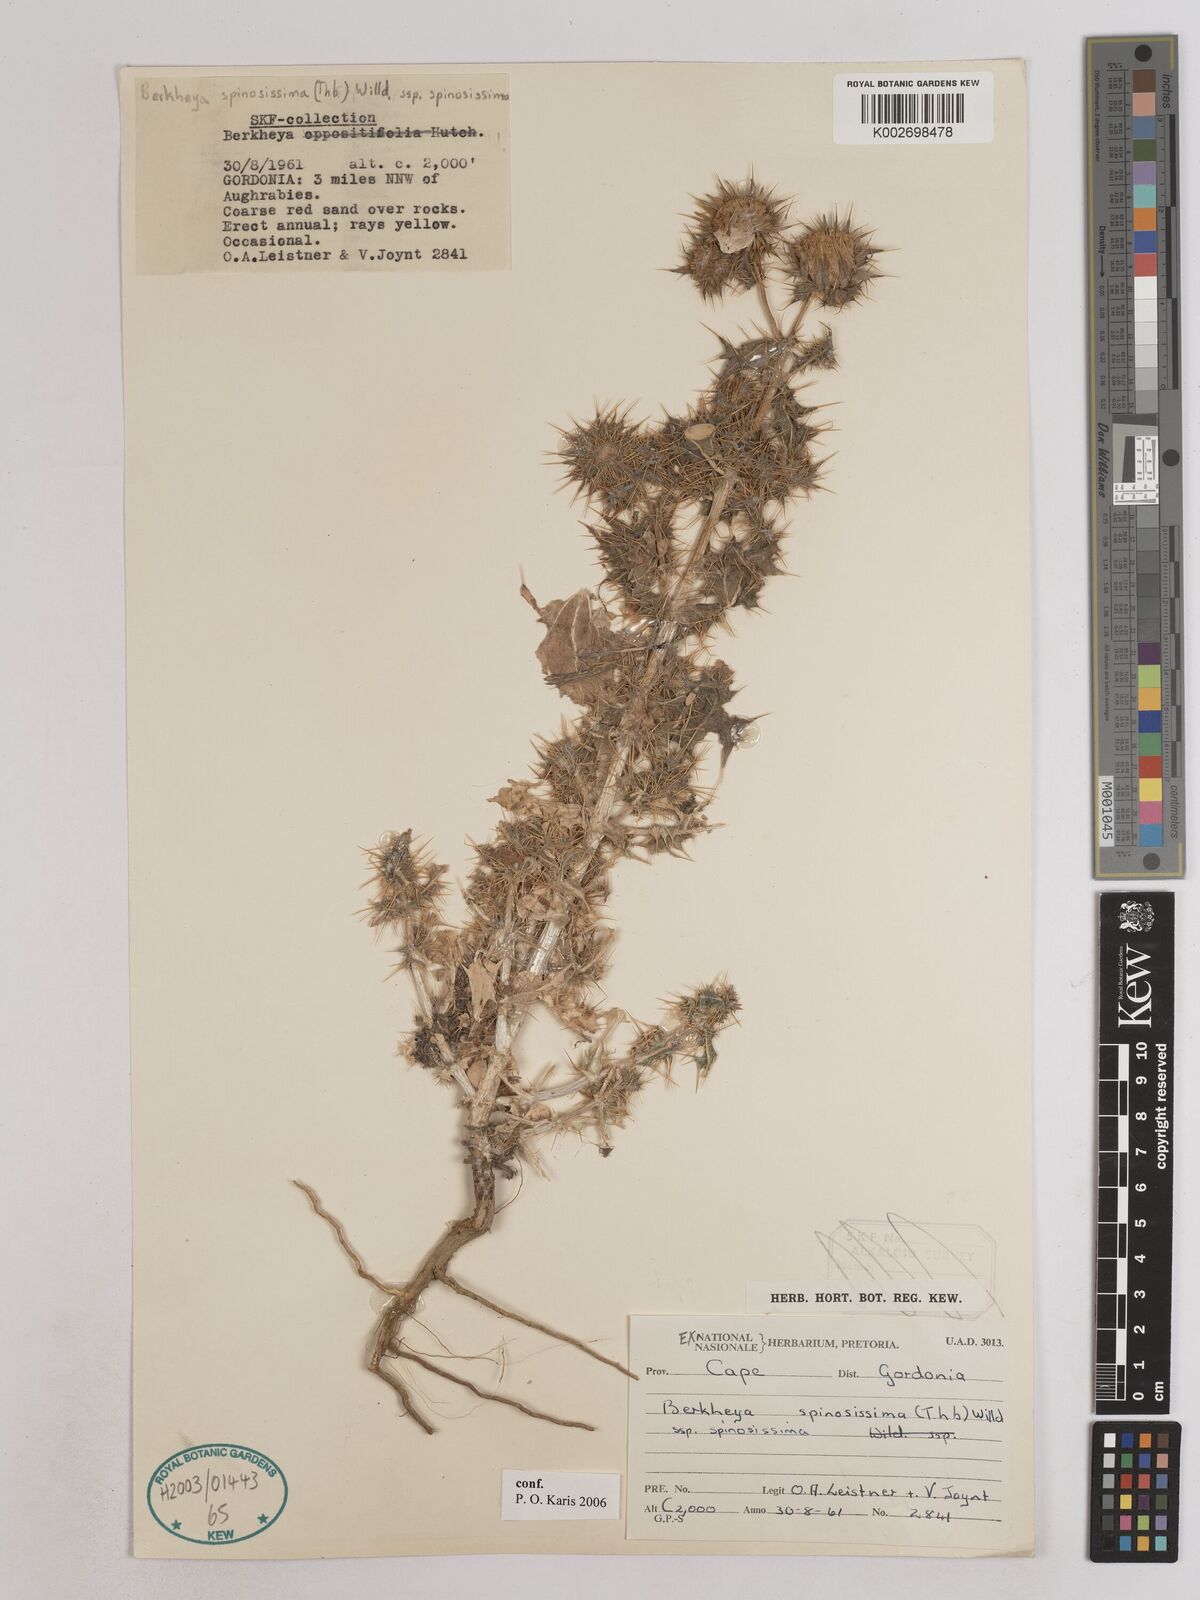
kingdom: Plantae
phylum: Tracheophyta
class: Magnoliopsida
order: Asterales
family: Asteraceae
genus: Berkheya
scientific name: Berkheya spinosissima
